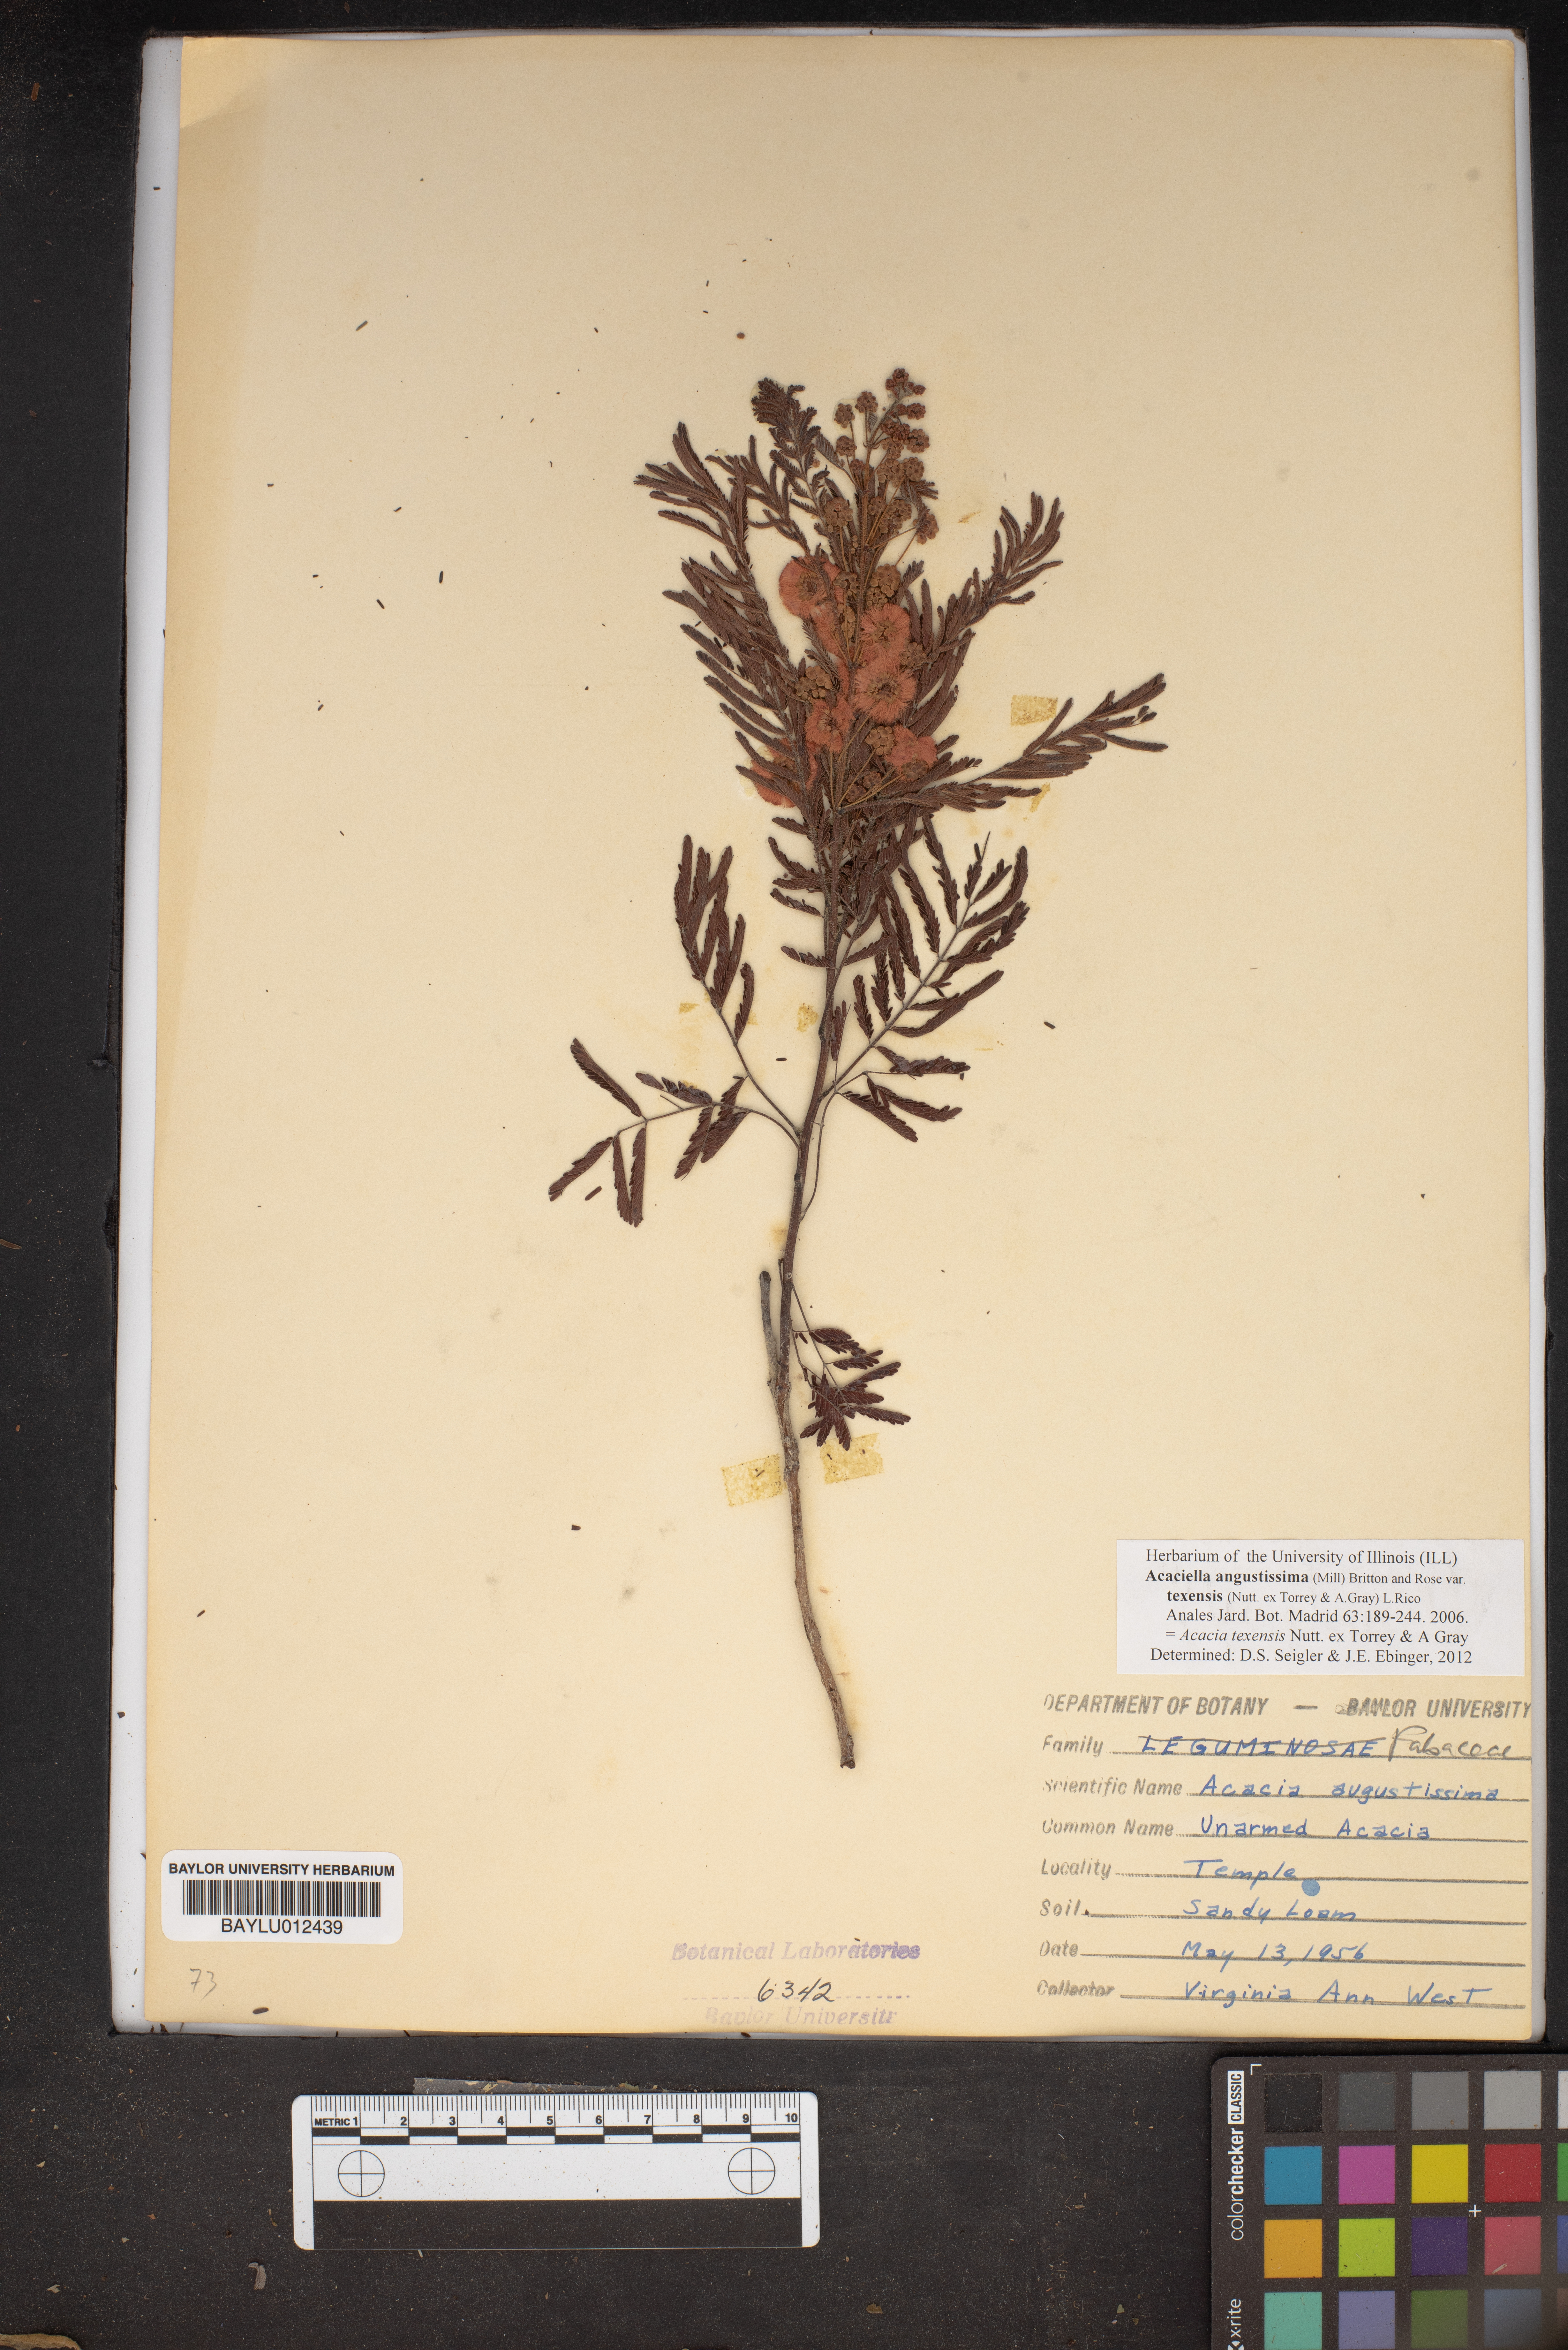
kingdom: Plantae
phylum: Tracheophyta
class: Magnoliopsida
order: Fabales
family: Fabaceae
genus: Acaciella
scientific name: Acaciella angustissima
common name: Prairie acacia
